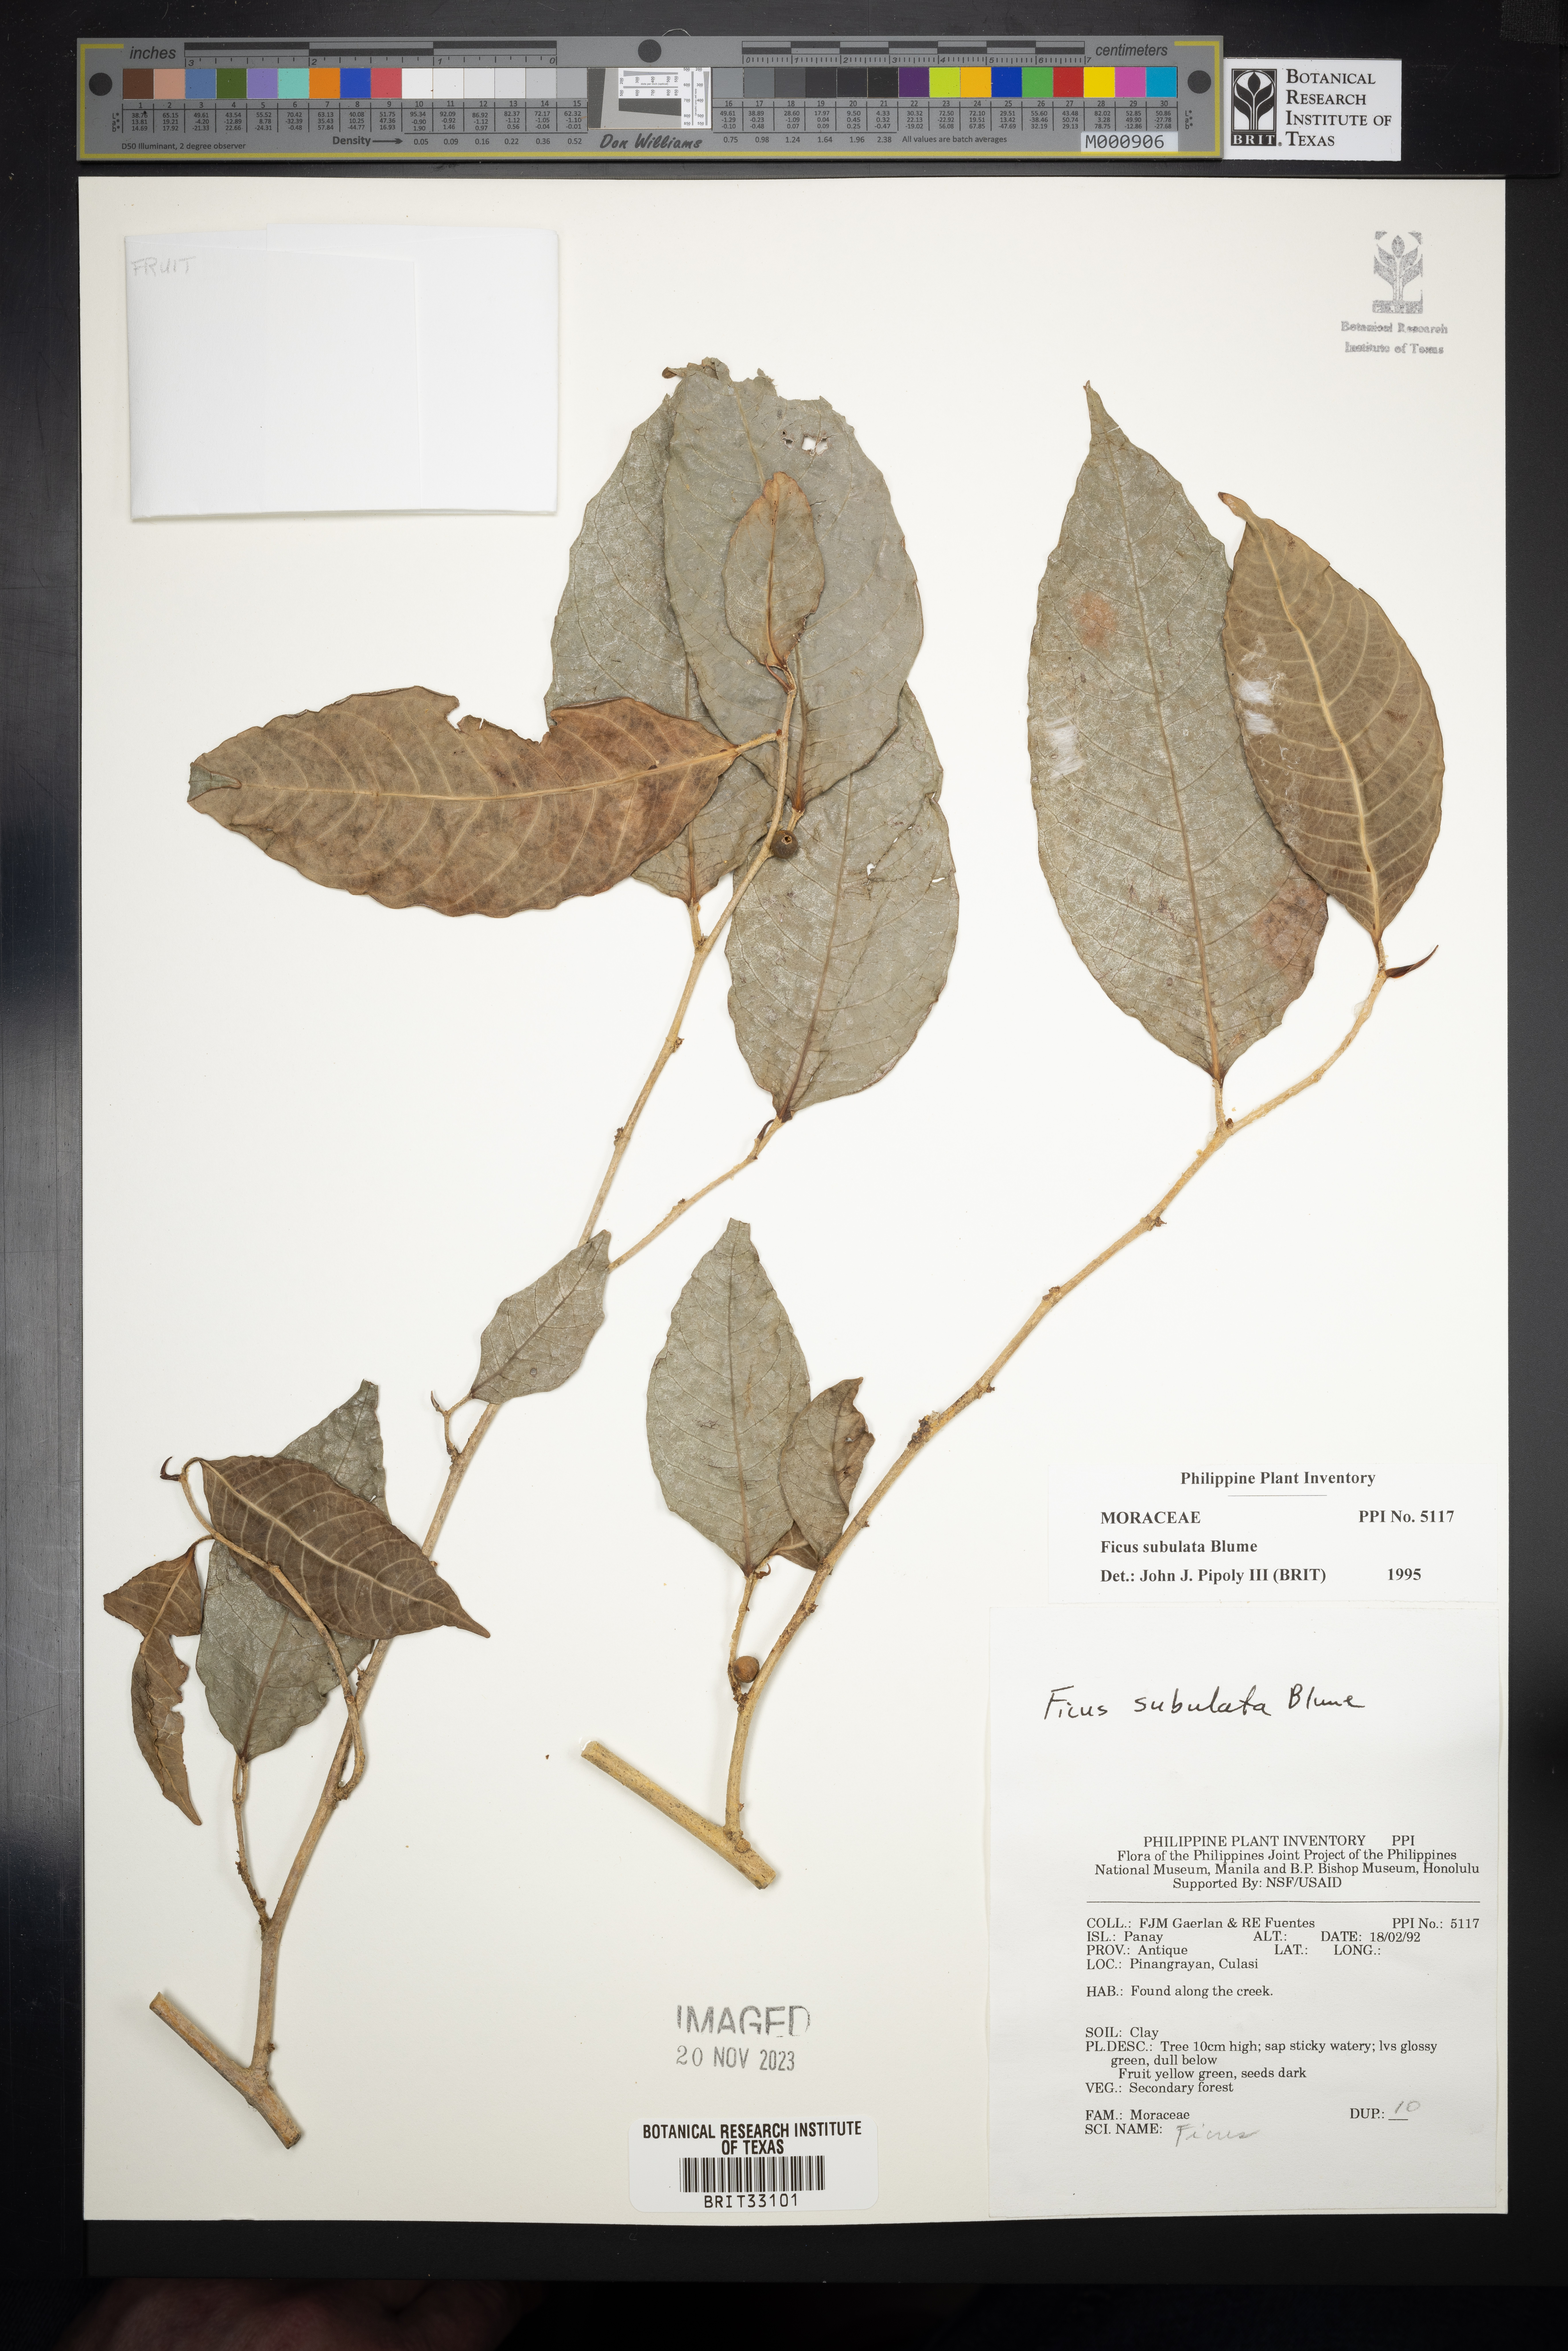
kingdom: Plantae
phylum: Tracheophyta
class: Magnoliopsida
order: Rosales
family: Moraceae
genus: Ficus
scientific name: Ficus subulata
